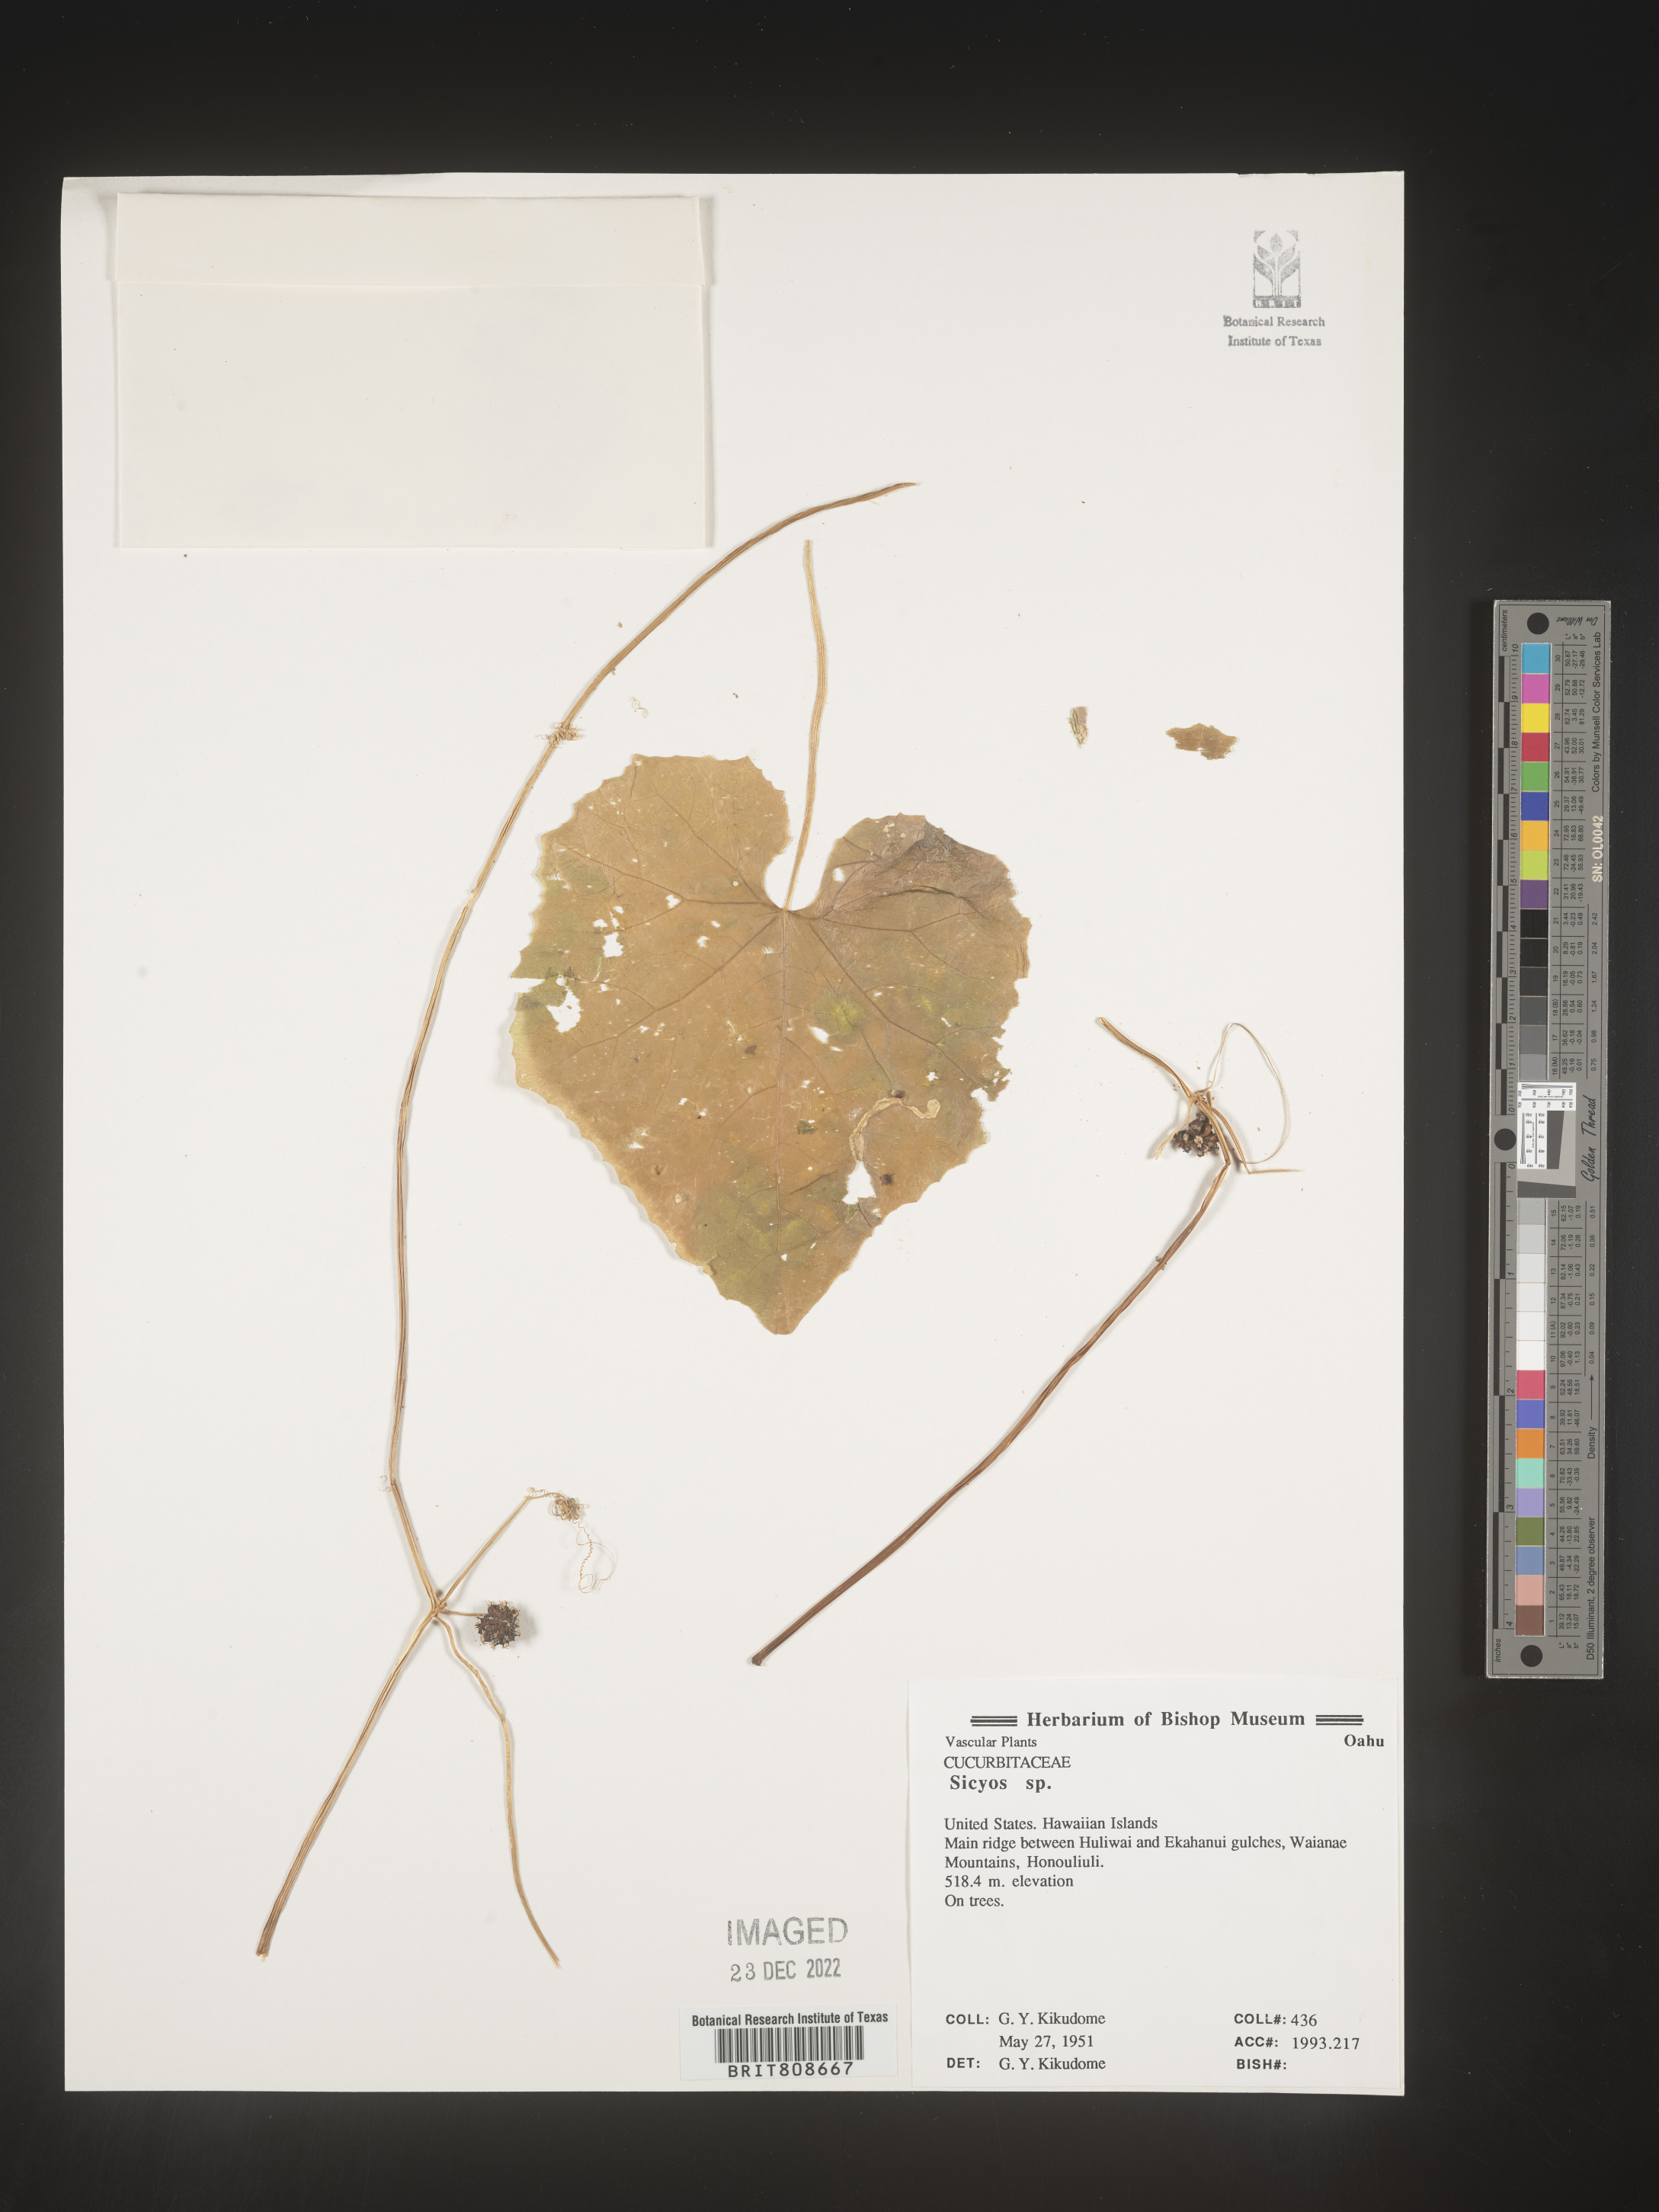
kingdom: Plantae
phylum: Tracheophyta
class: Magnoliopsida
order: Cucurbitales
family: Cucurbitaceae
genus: Sicyos
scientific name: Sicyos
